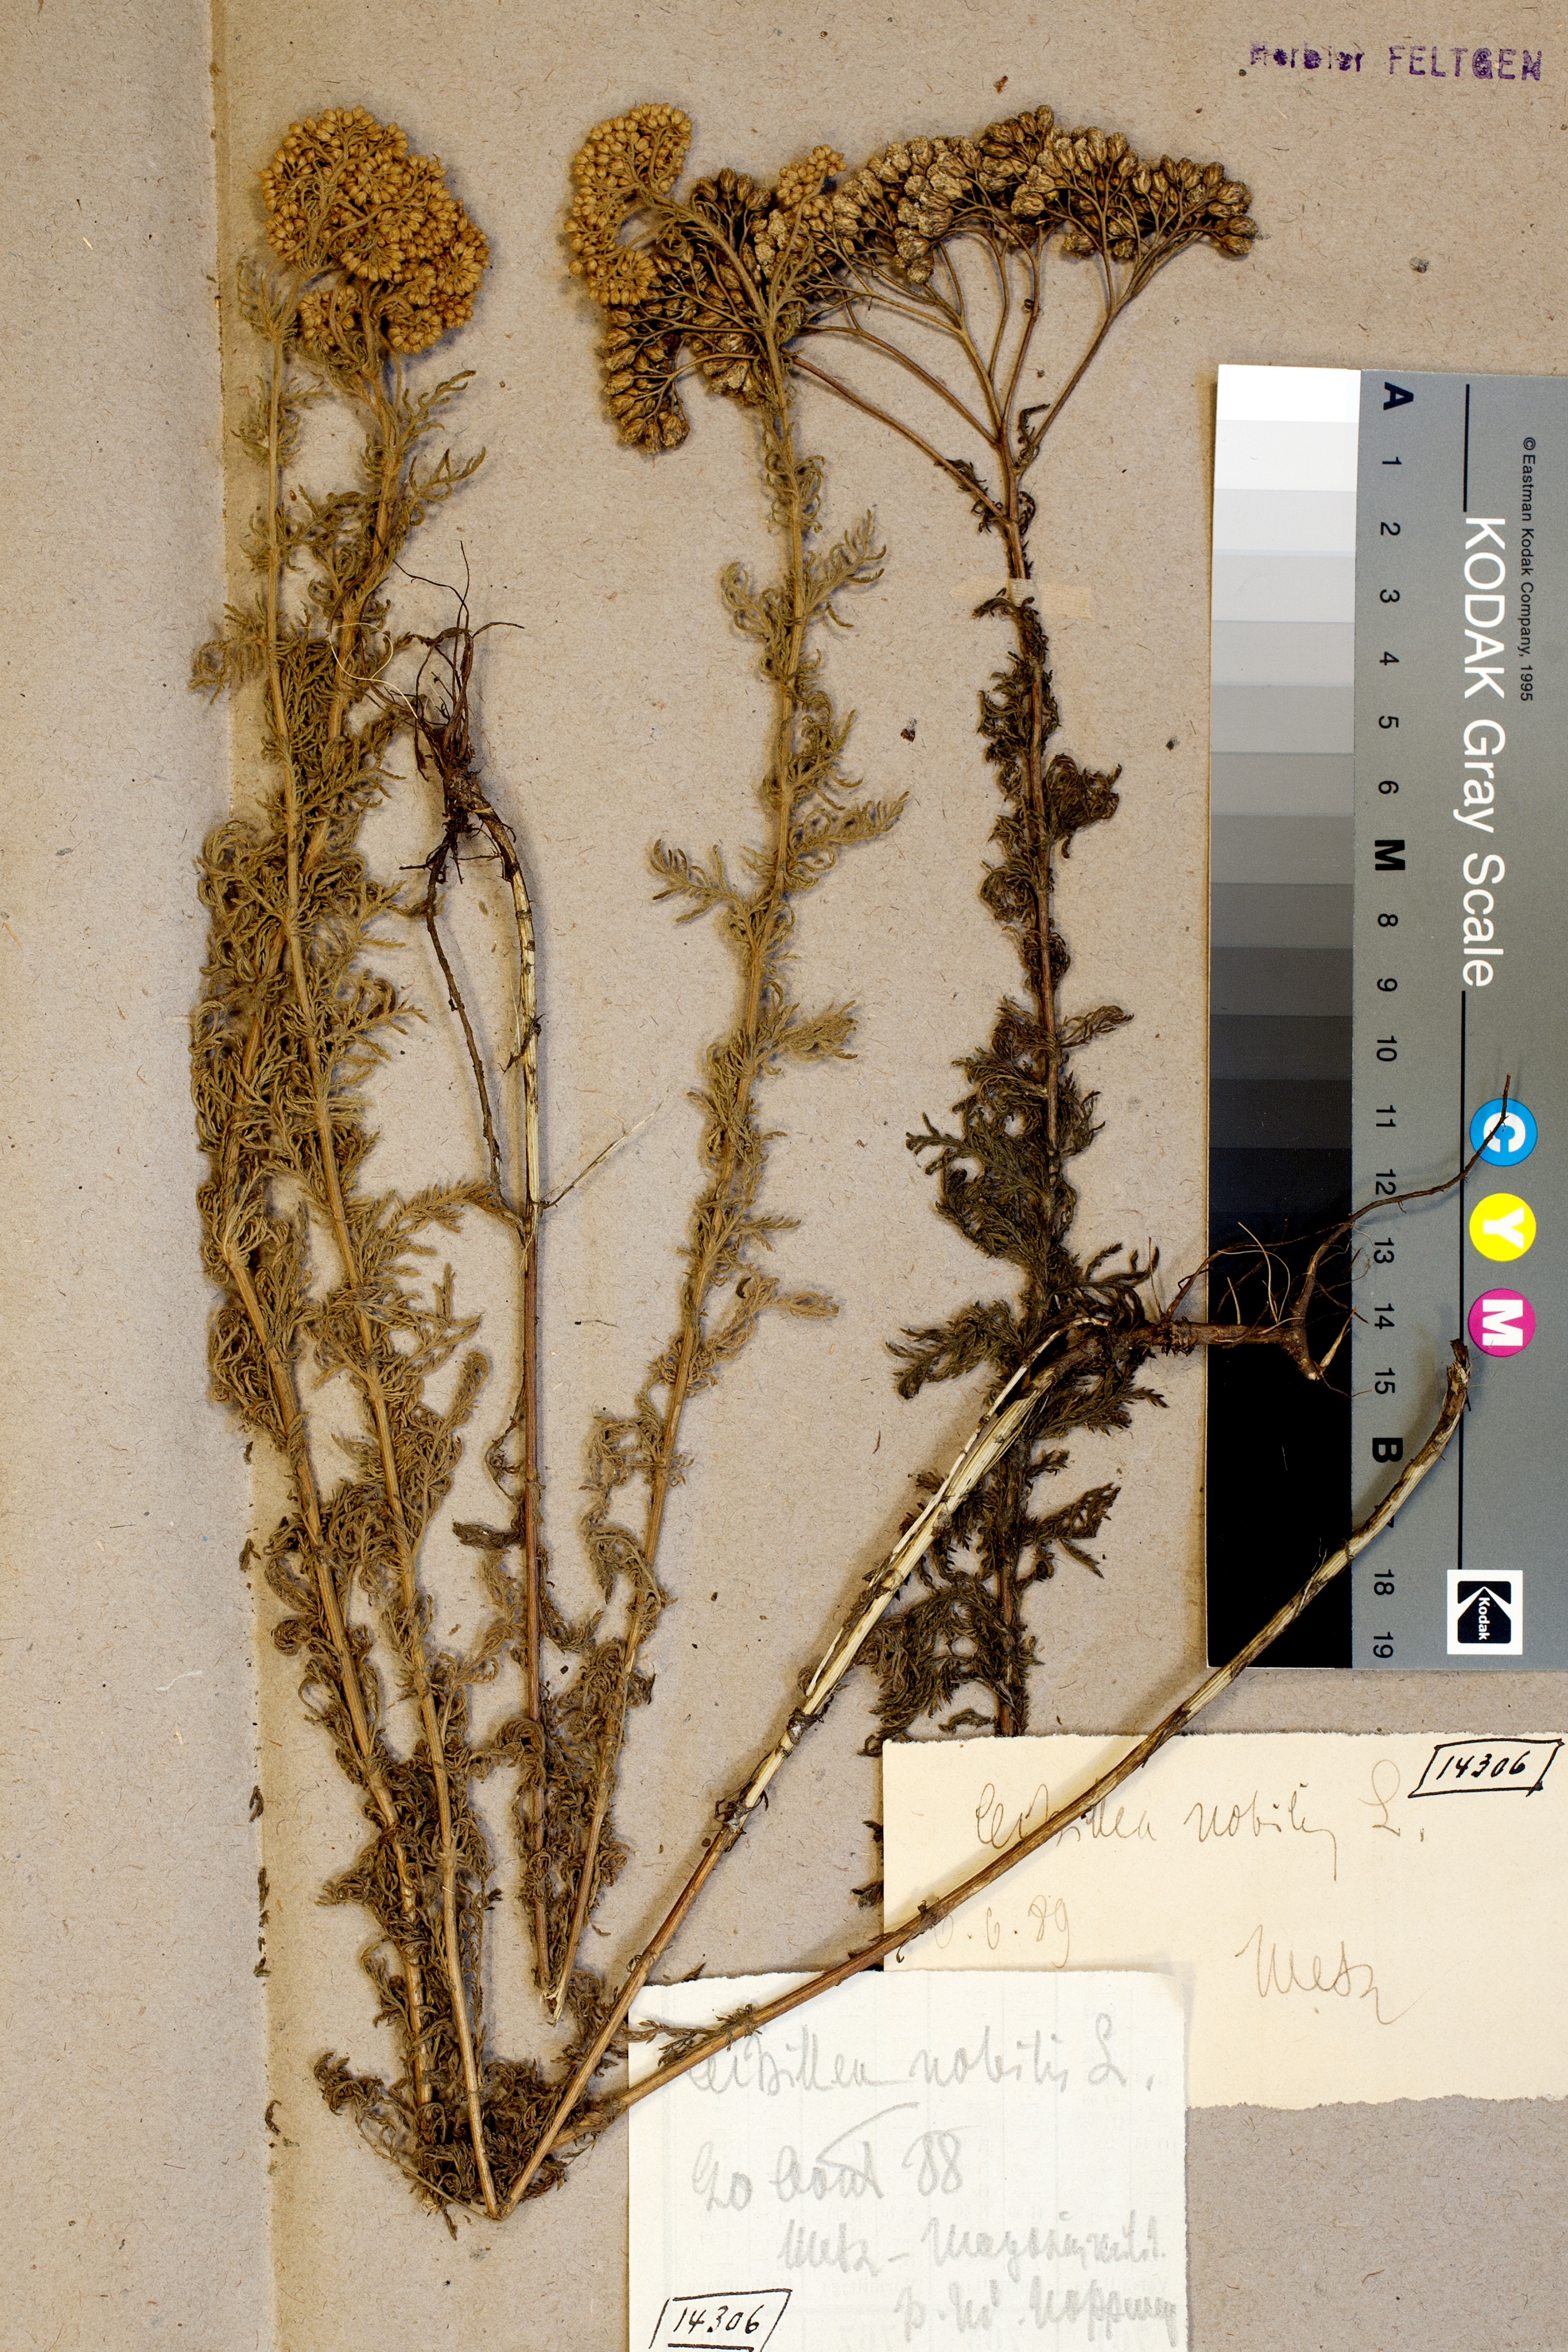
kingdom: Plantae
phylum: Tracheophyta
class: Magnoliopsida
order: Asterales
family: Asteraceae
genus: Achillea
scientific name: Achillea nobilis
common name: Noble yarrow
